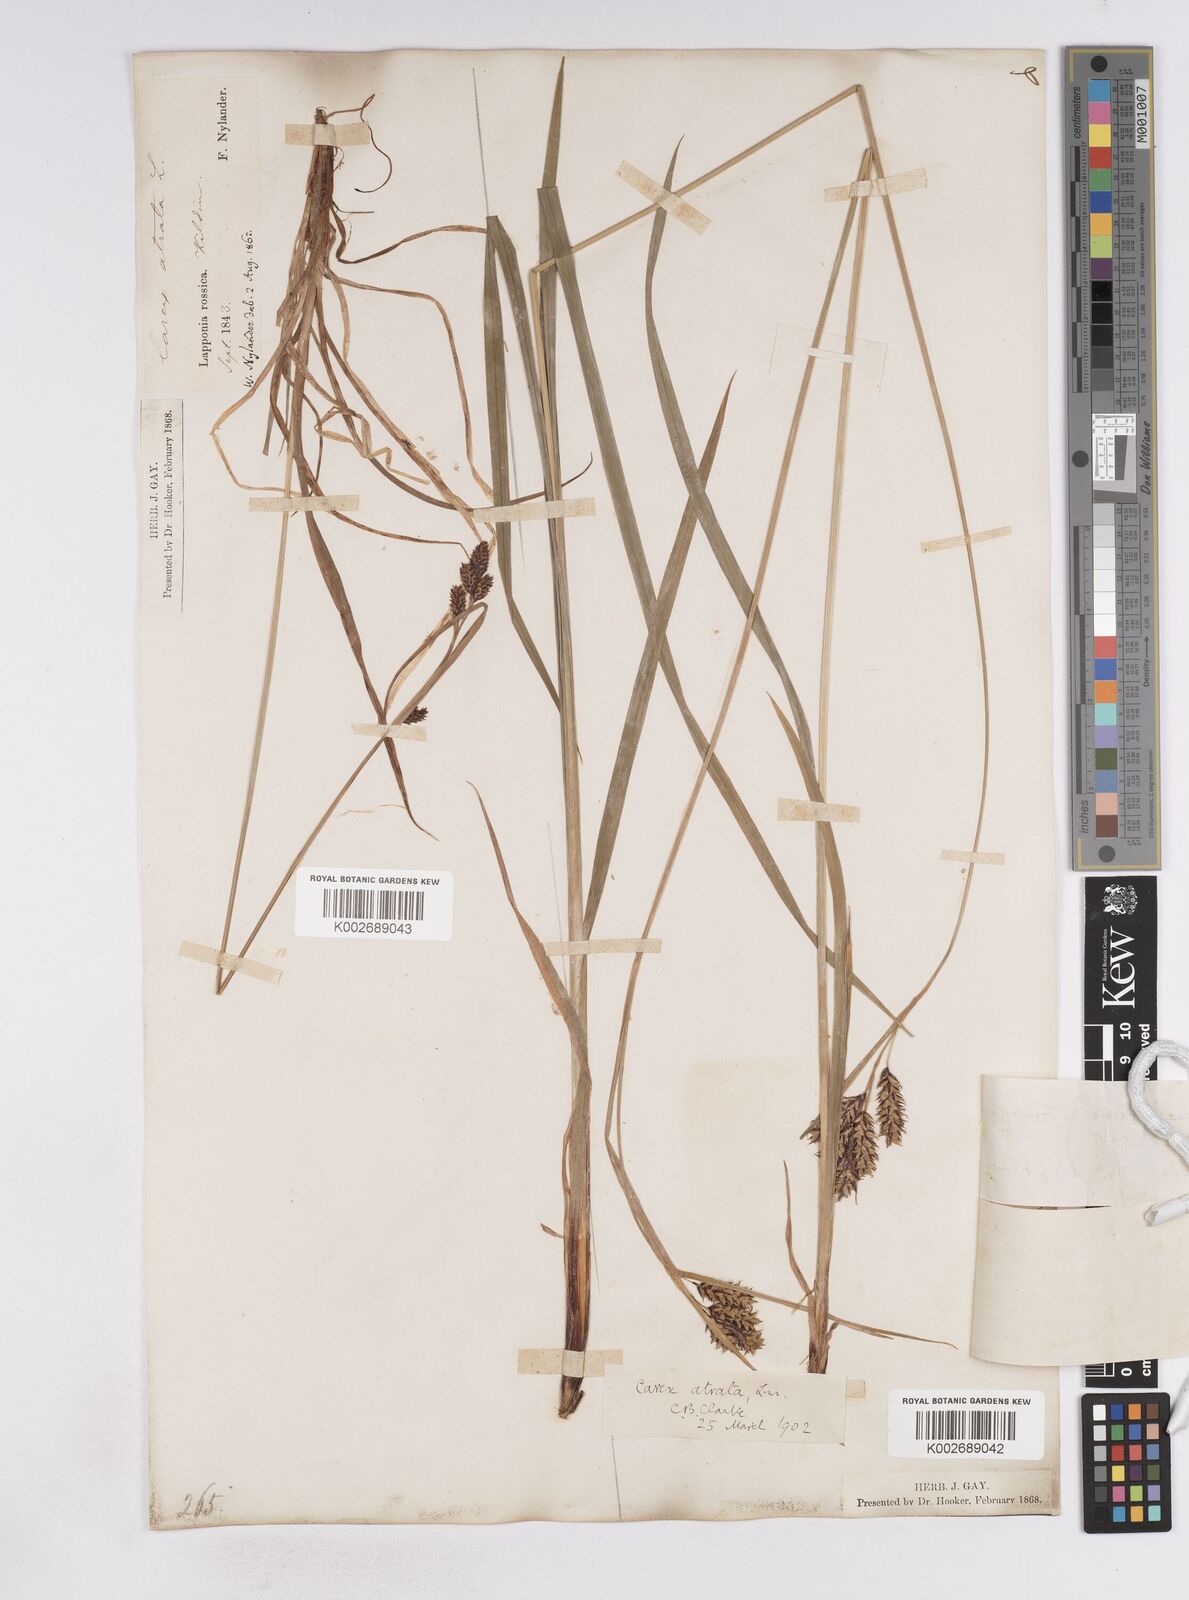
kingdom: Plantae
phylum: Tracheophyta
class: Liliopsida
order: Poales
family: Cyperaceae
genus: Carex
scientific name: Carex atrata
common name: Black alpine sedge
